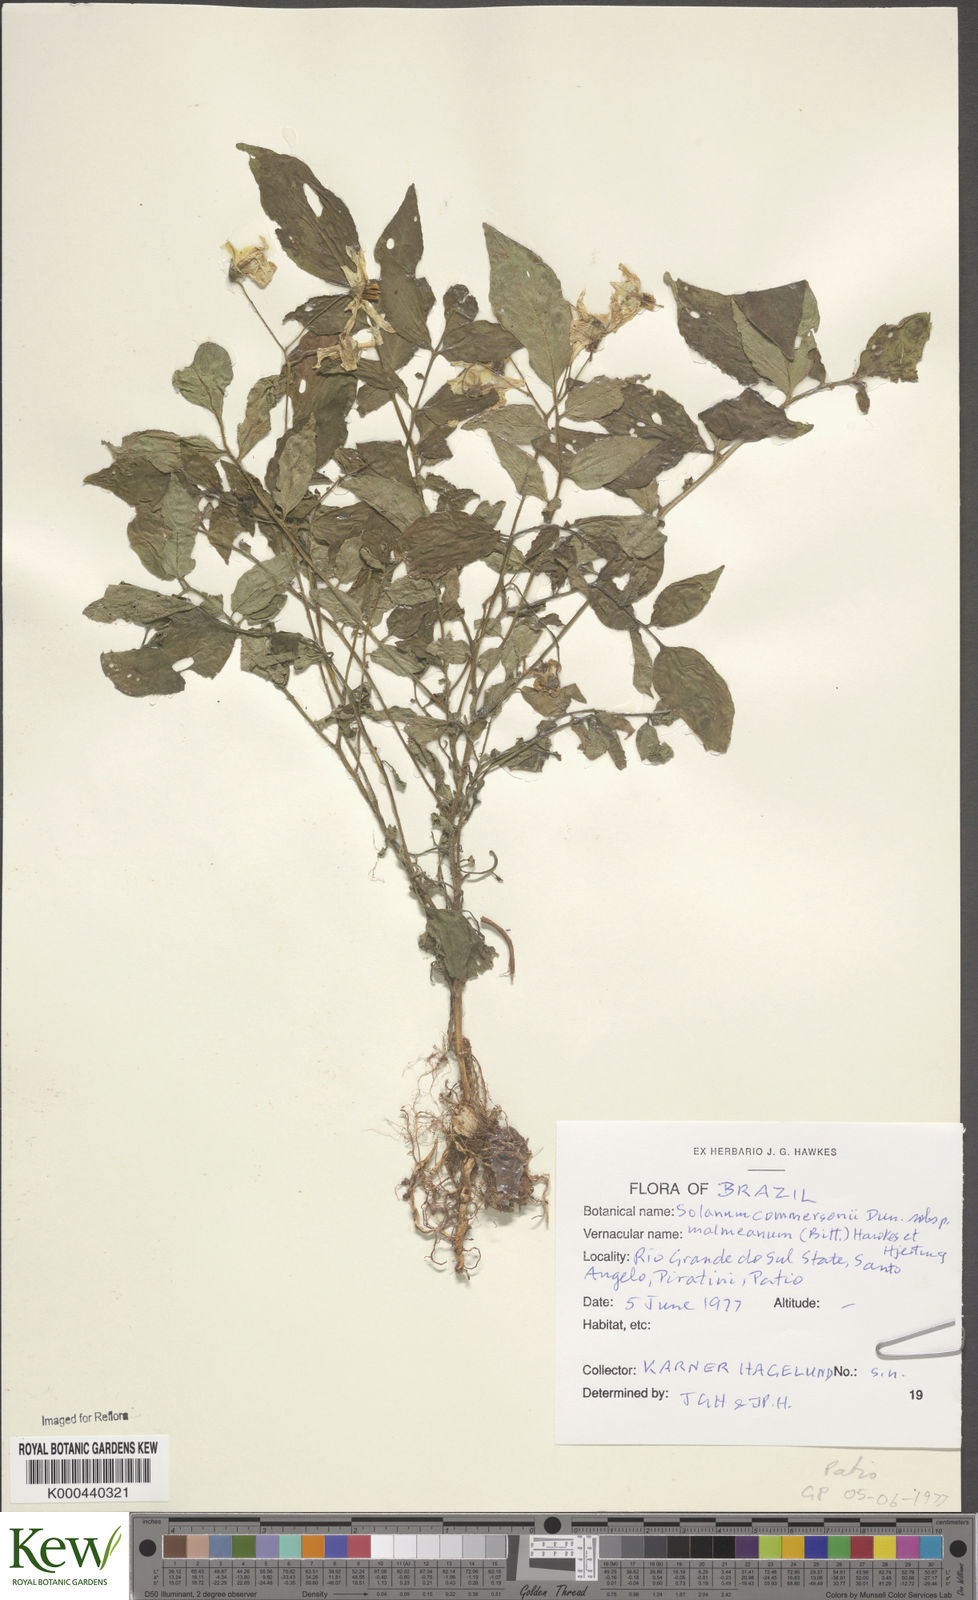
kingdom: Plantae
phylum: Tracheophyta
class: Magnoliopsida
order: Solanales
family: Solanaceae
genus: Solanum
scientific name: Solanum commersonii
